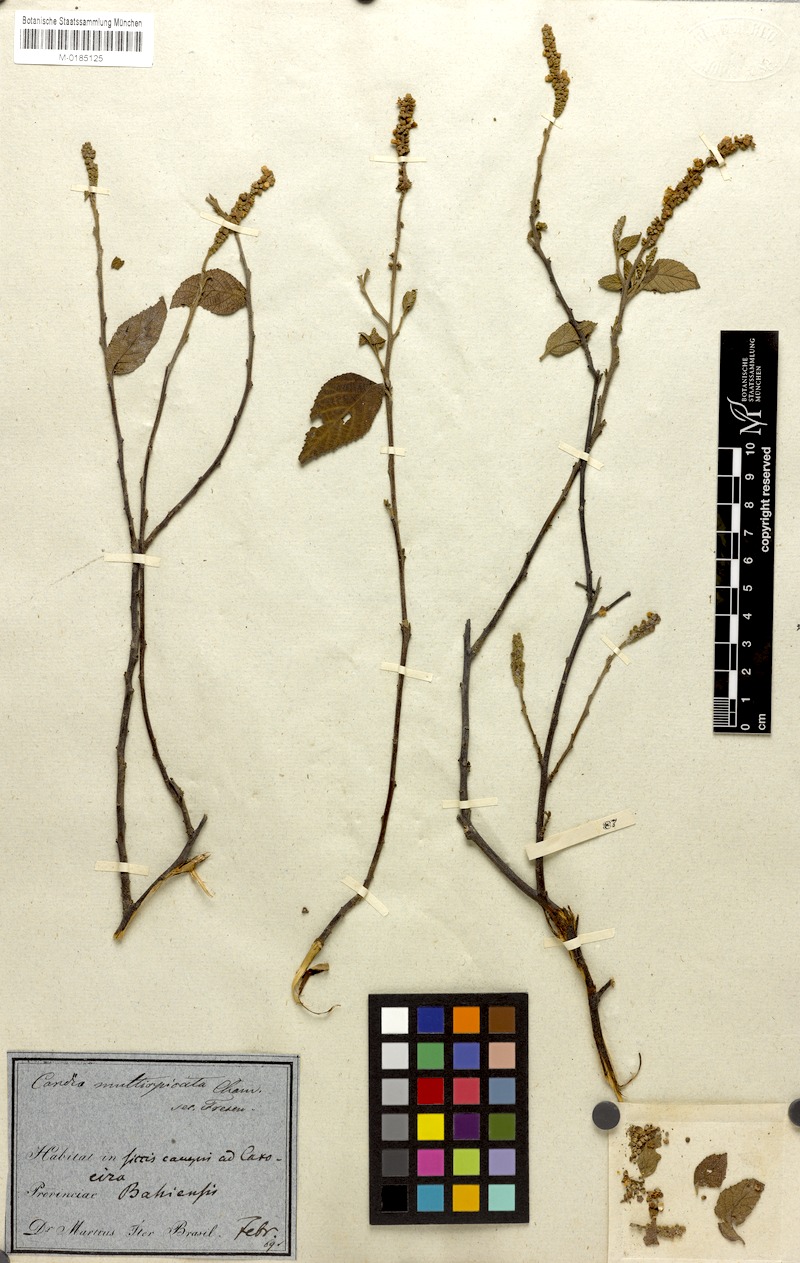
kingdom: Plantae
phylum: Tracheophyta
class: Magnoliopsida
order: Boraginales
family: Cordiaceae
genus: Varronia
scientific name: Varronia multispicata
